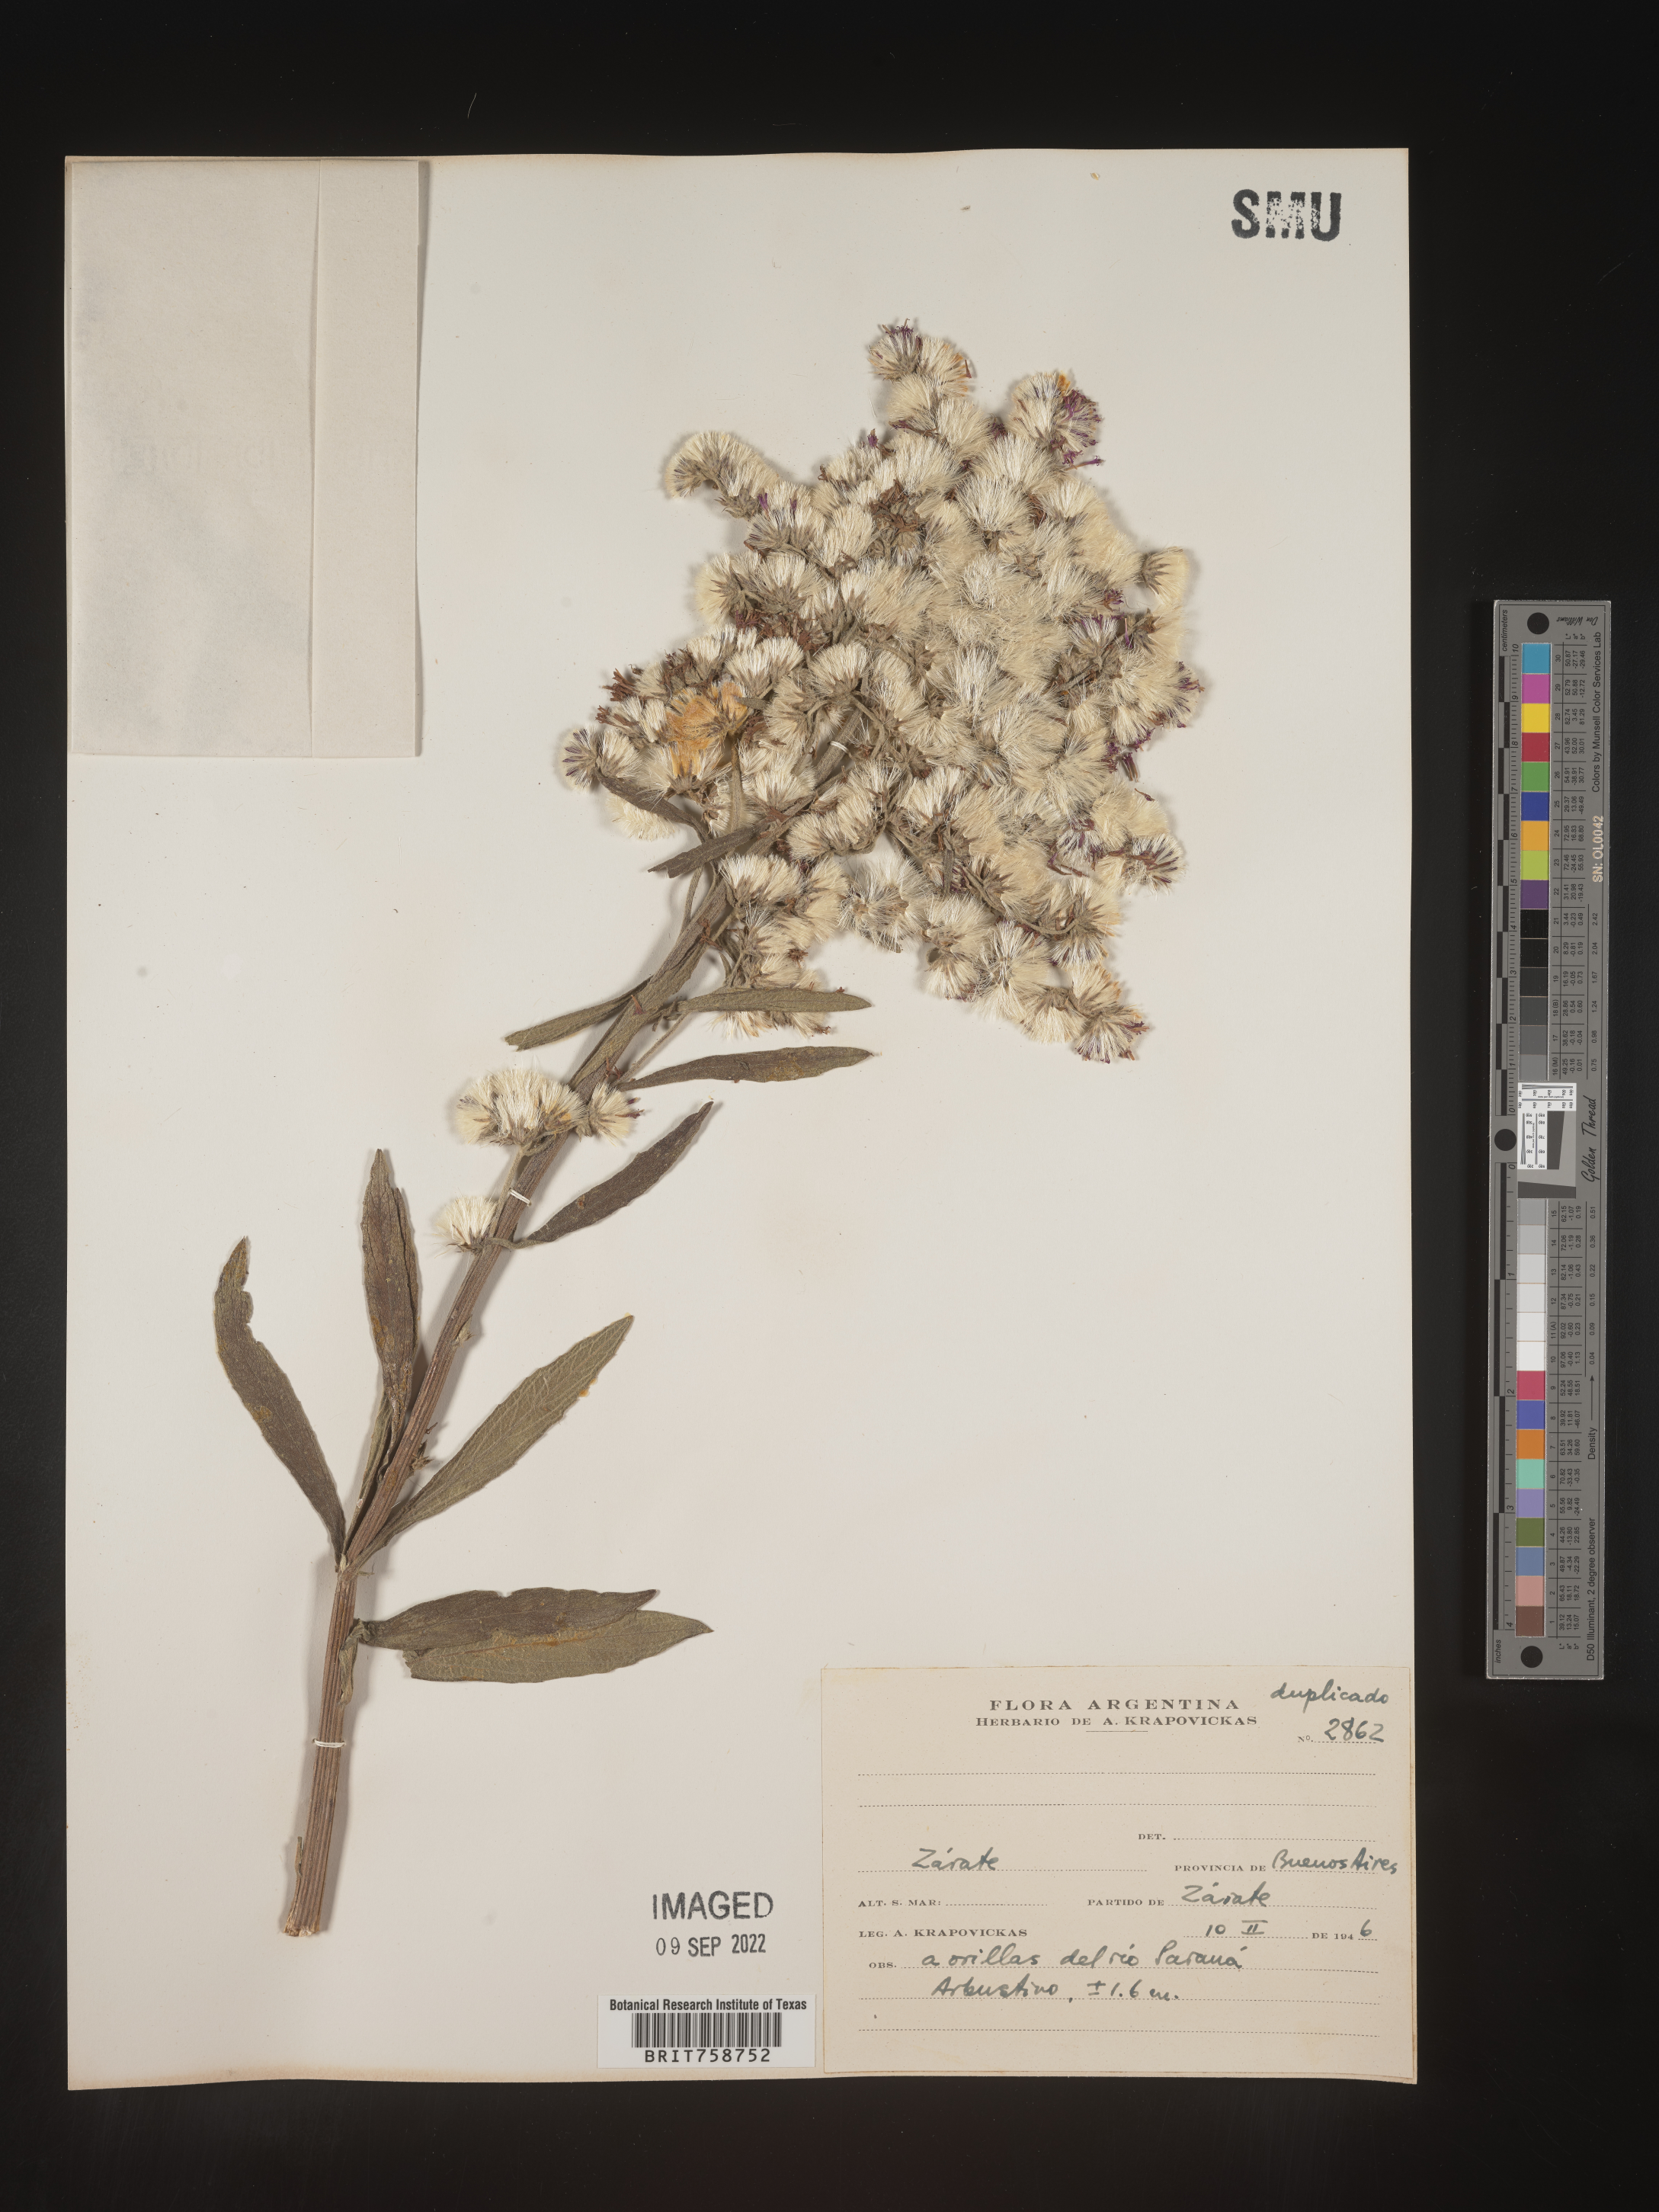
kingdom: Plantae
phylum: Tracheophyta
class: Magnoliopsida
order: Asterales
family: Asteraceae
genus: Vernonia
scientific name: Vernonia
